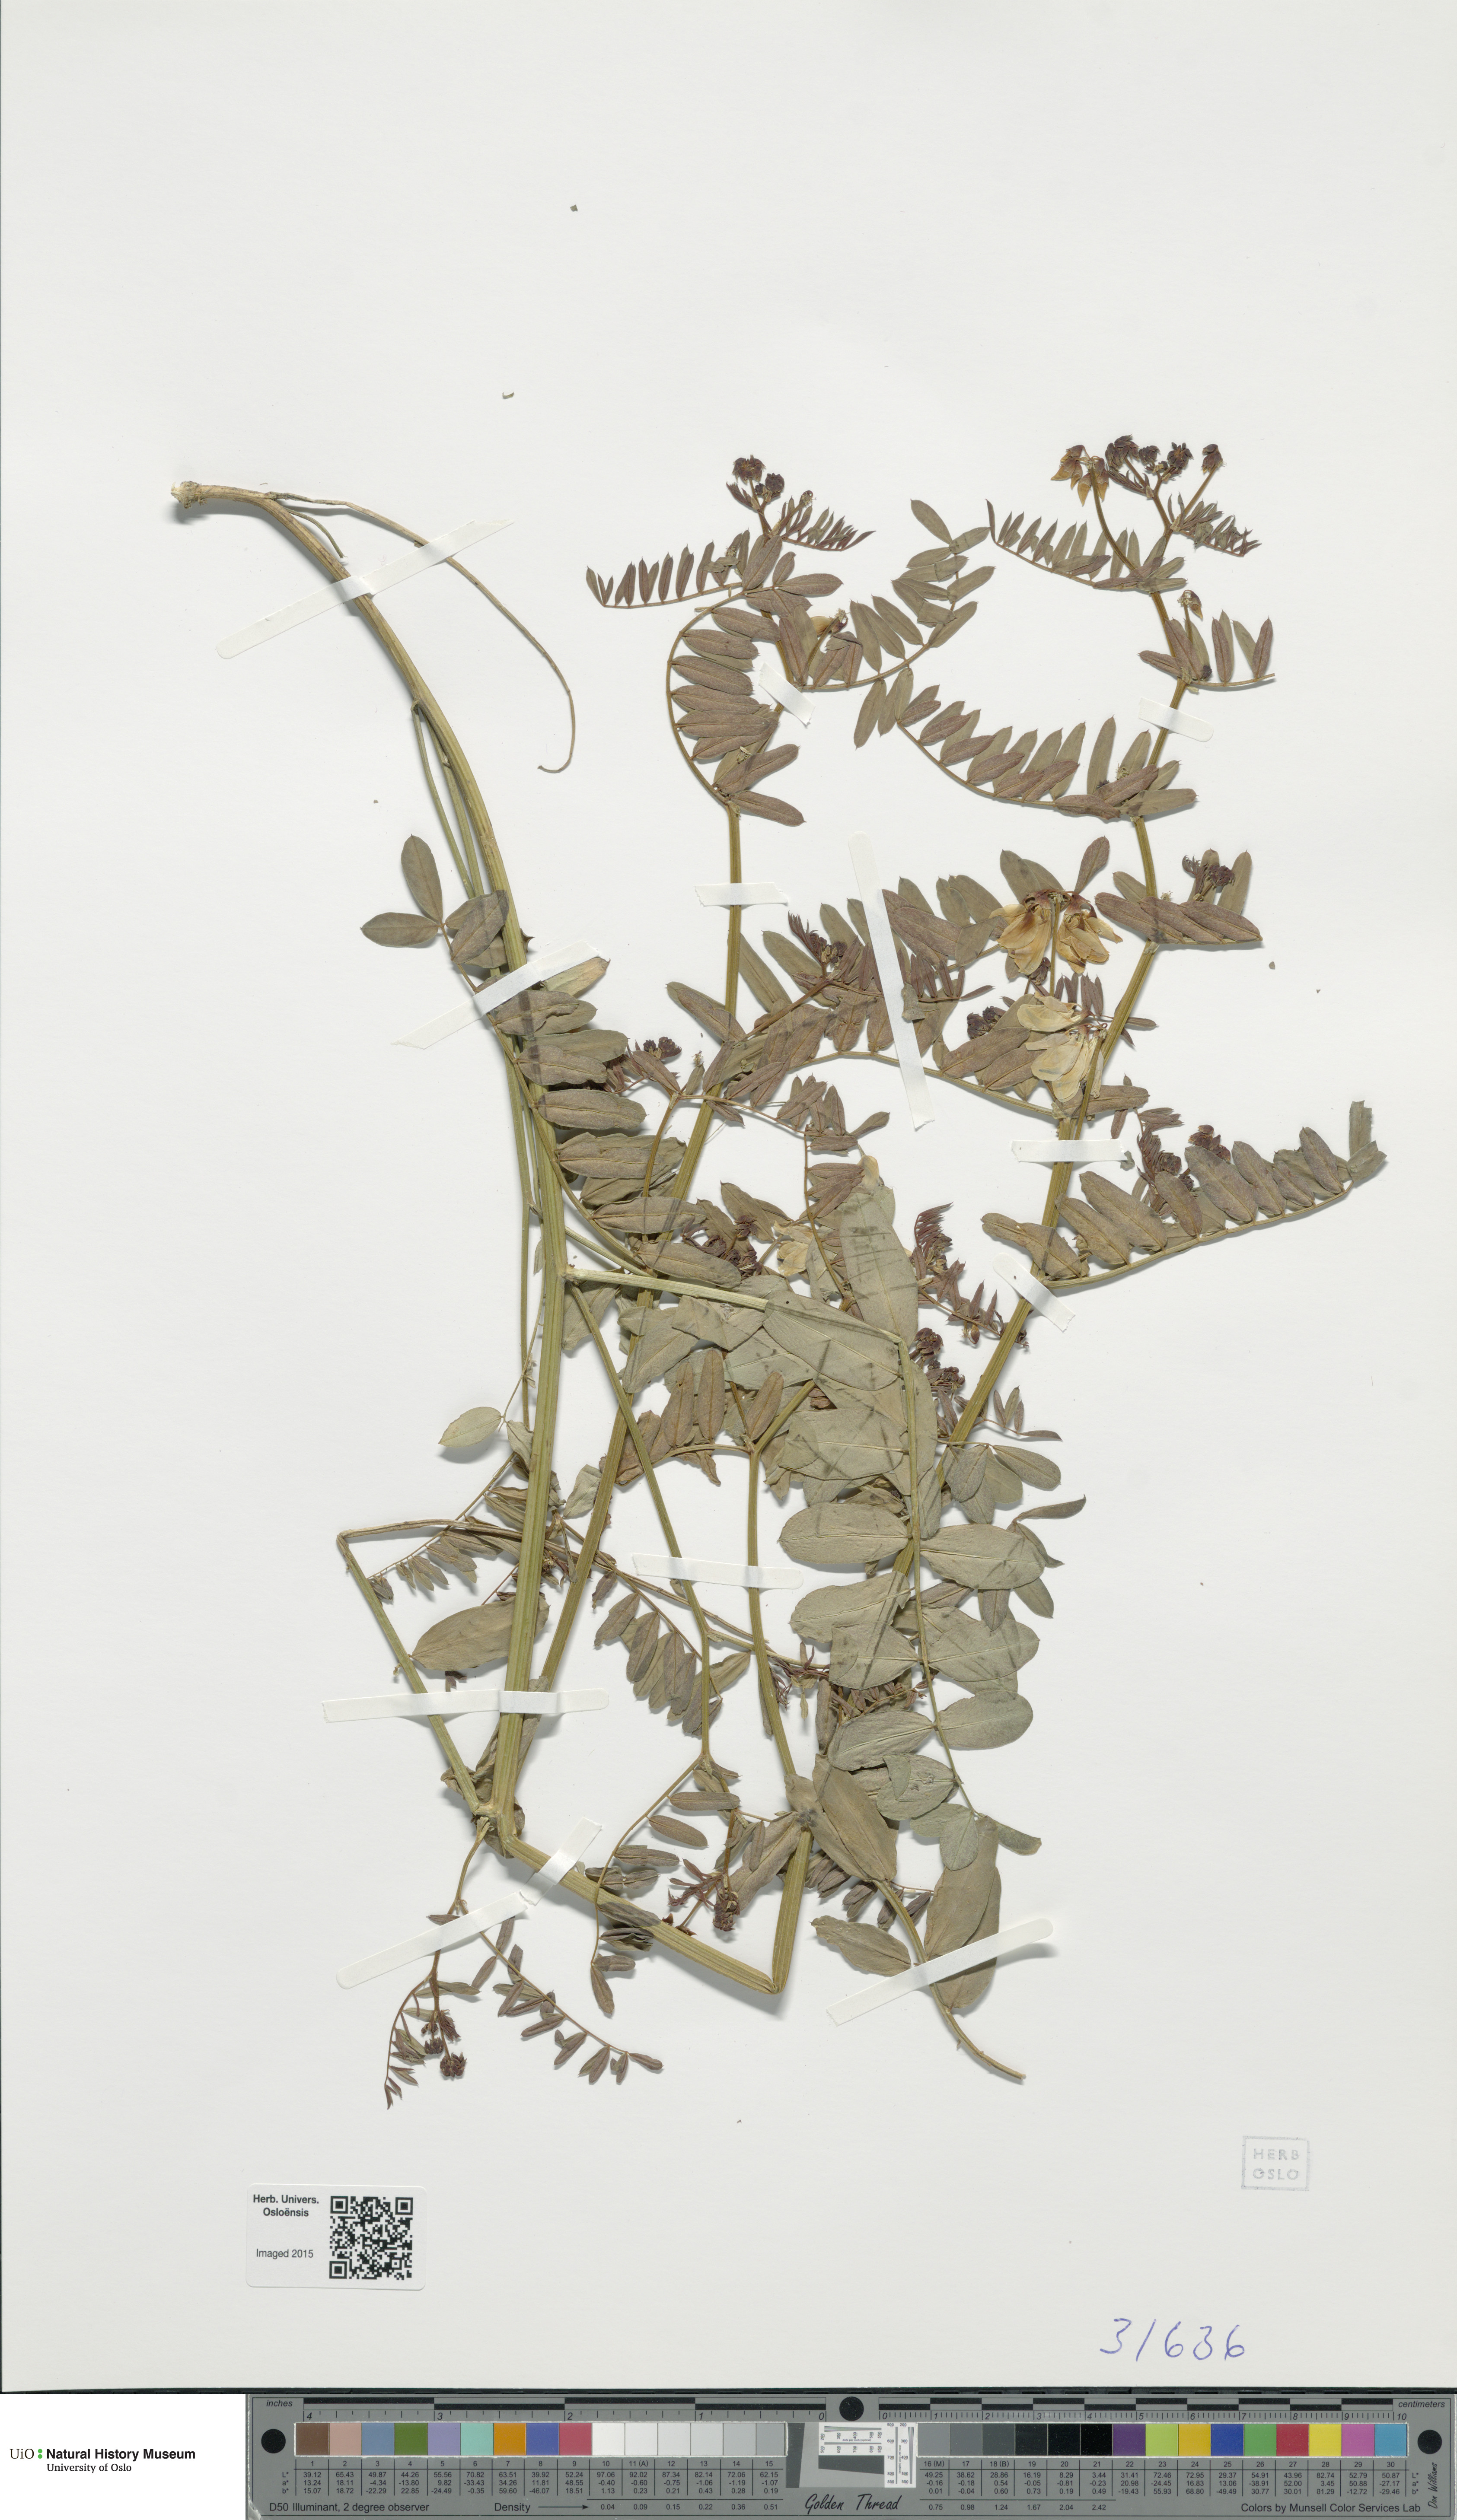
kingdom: Plantae
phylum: Tracheophyta
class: Magnoliopsida
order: Fabales
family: Fabaceae
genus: Coronilla
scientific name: Coronilla varia
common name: Crownvetch
